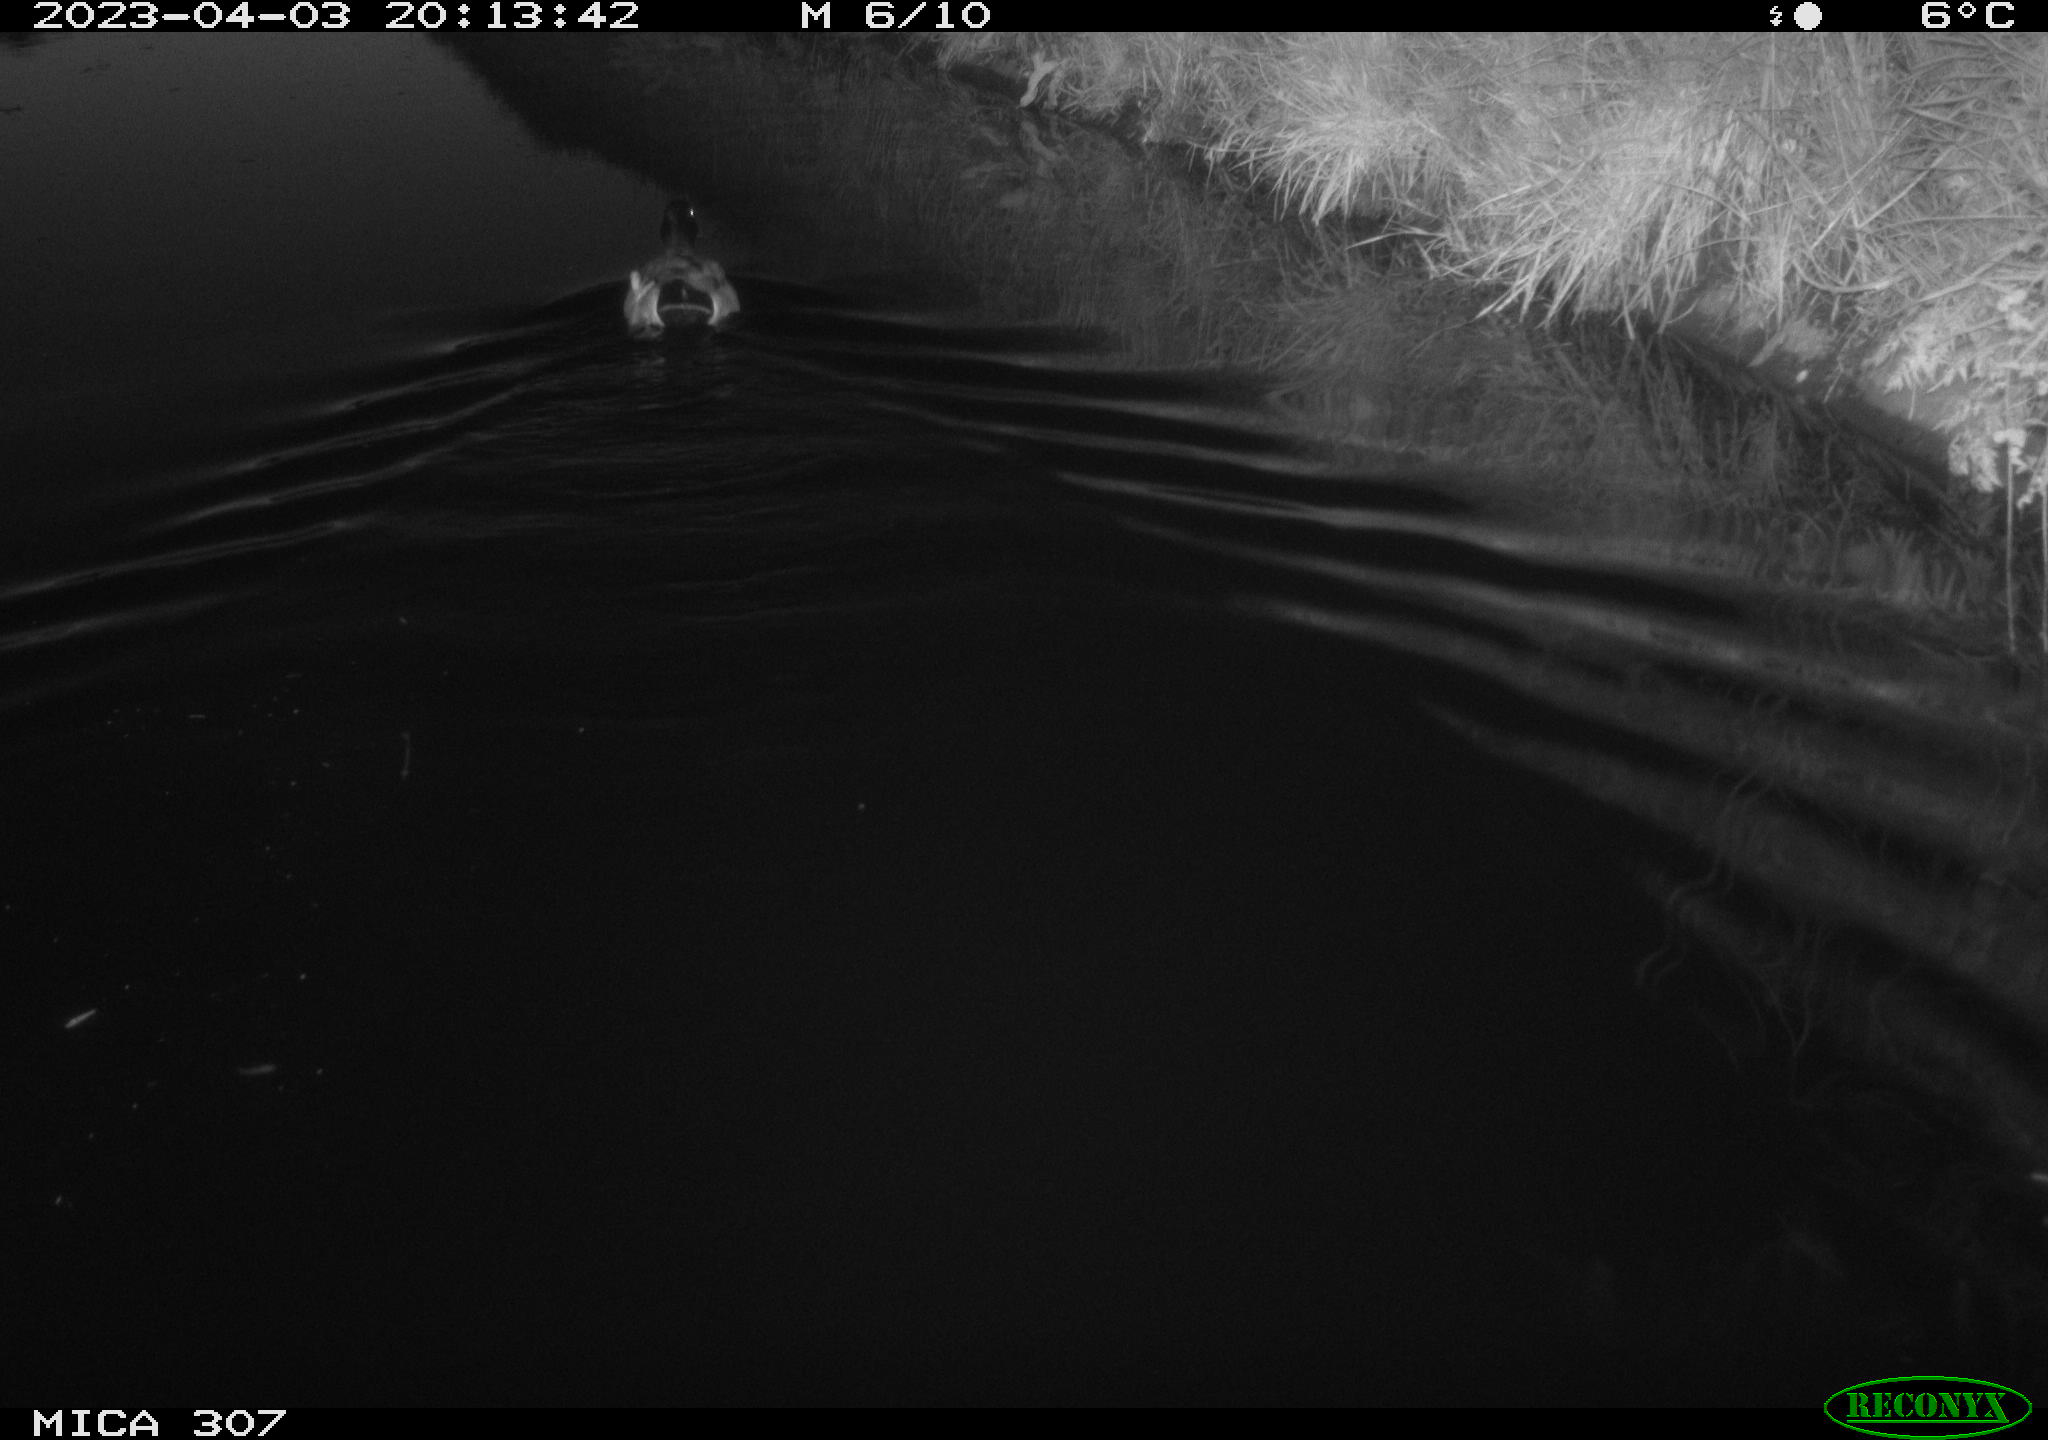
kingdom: Animalia
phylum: Chordata
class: Aves
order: Anseriformes
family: Anatidae
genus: Anas
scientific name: Anas
